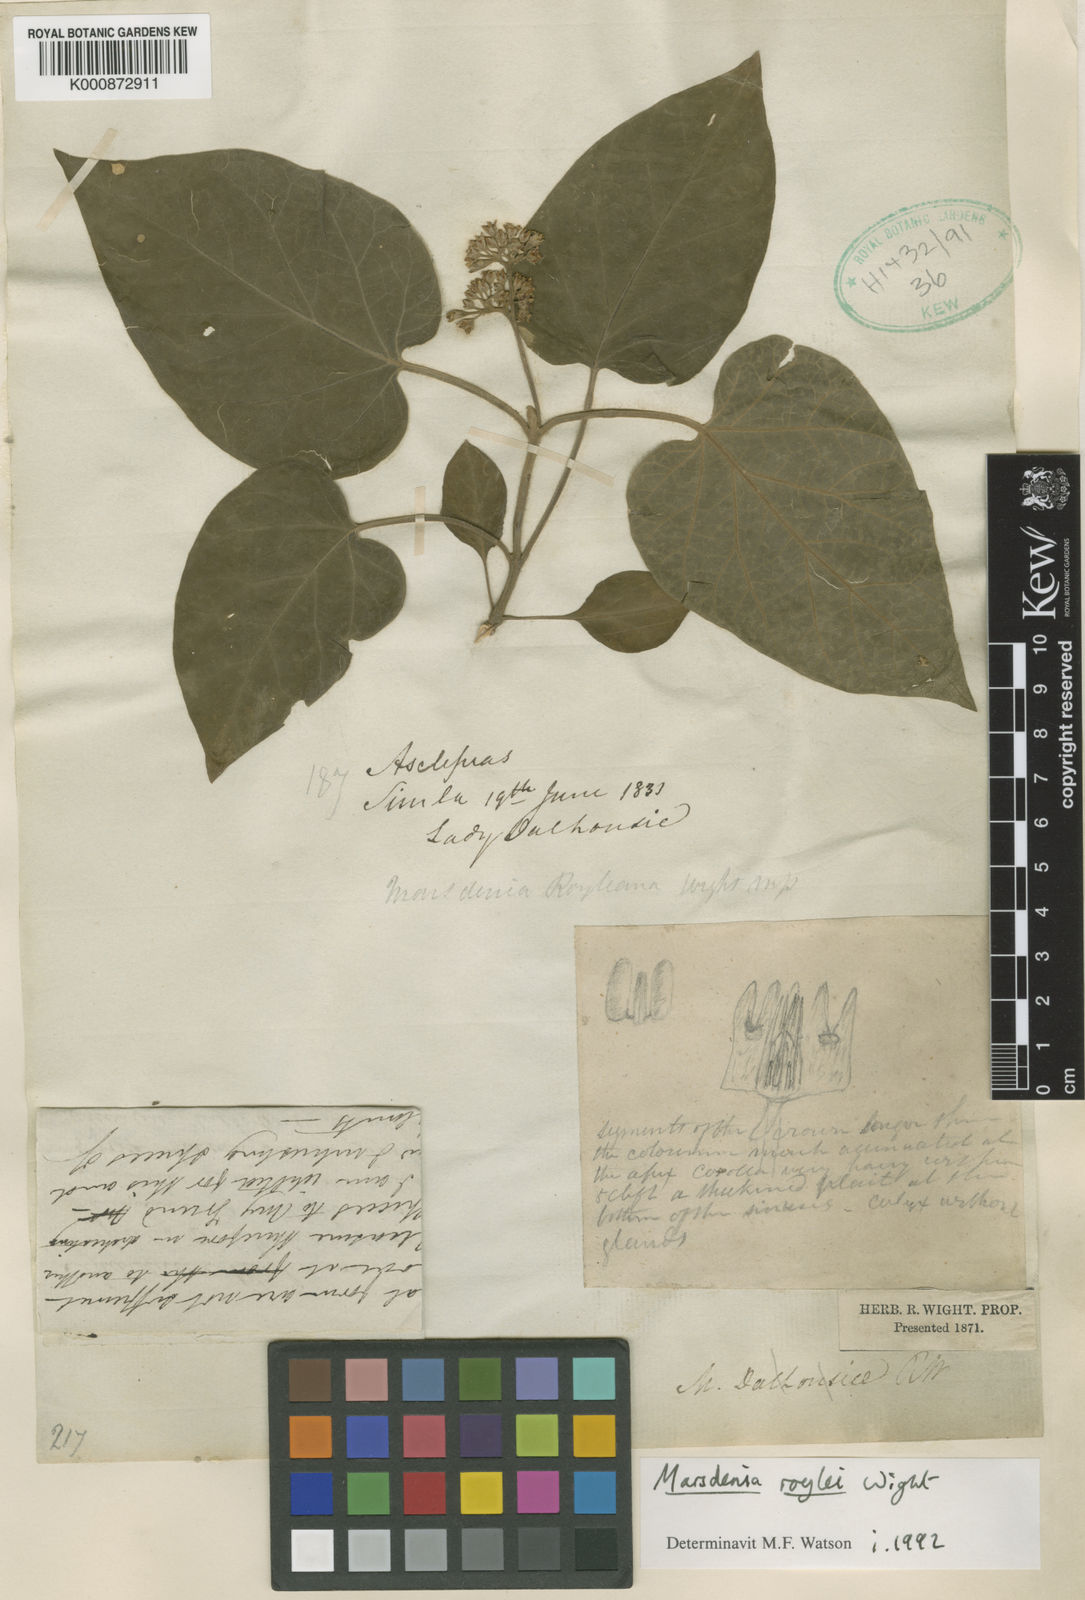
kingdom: Plantae
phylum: Tracheophyta
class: Magnoliopsida
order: Gentianales
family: Apocynaceae
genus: Marsdenia
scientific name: Marsdenia roylei
